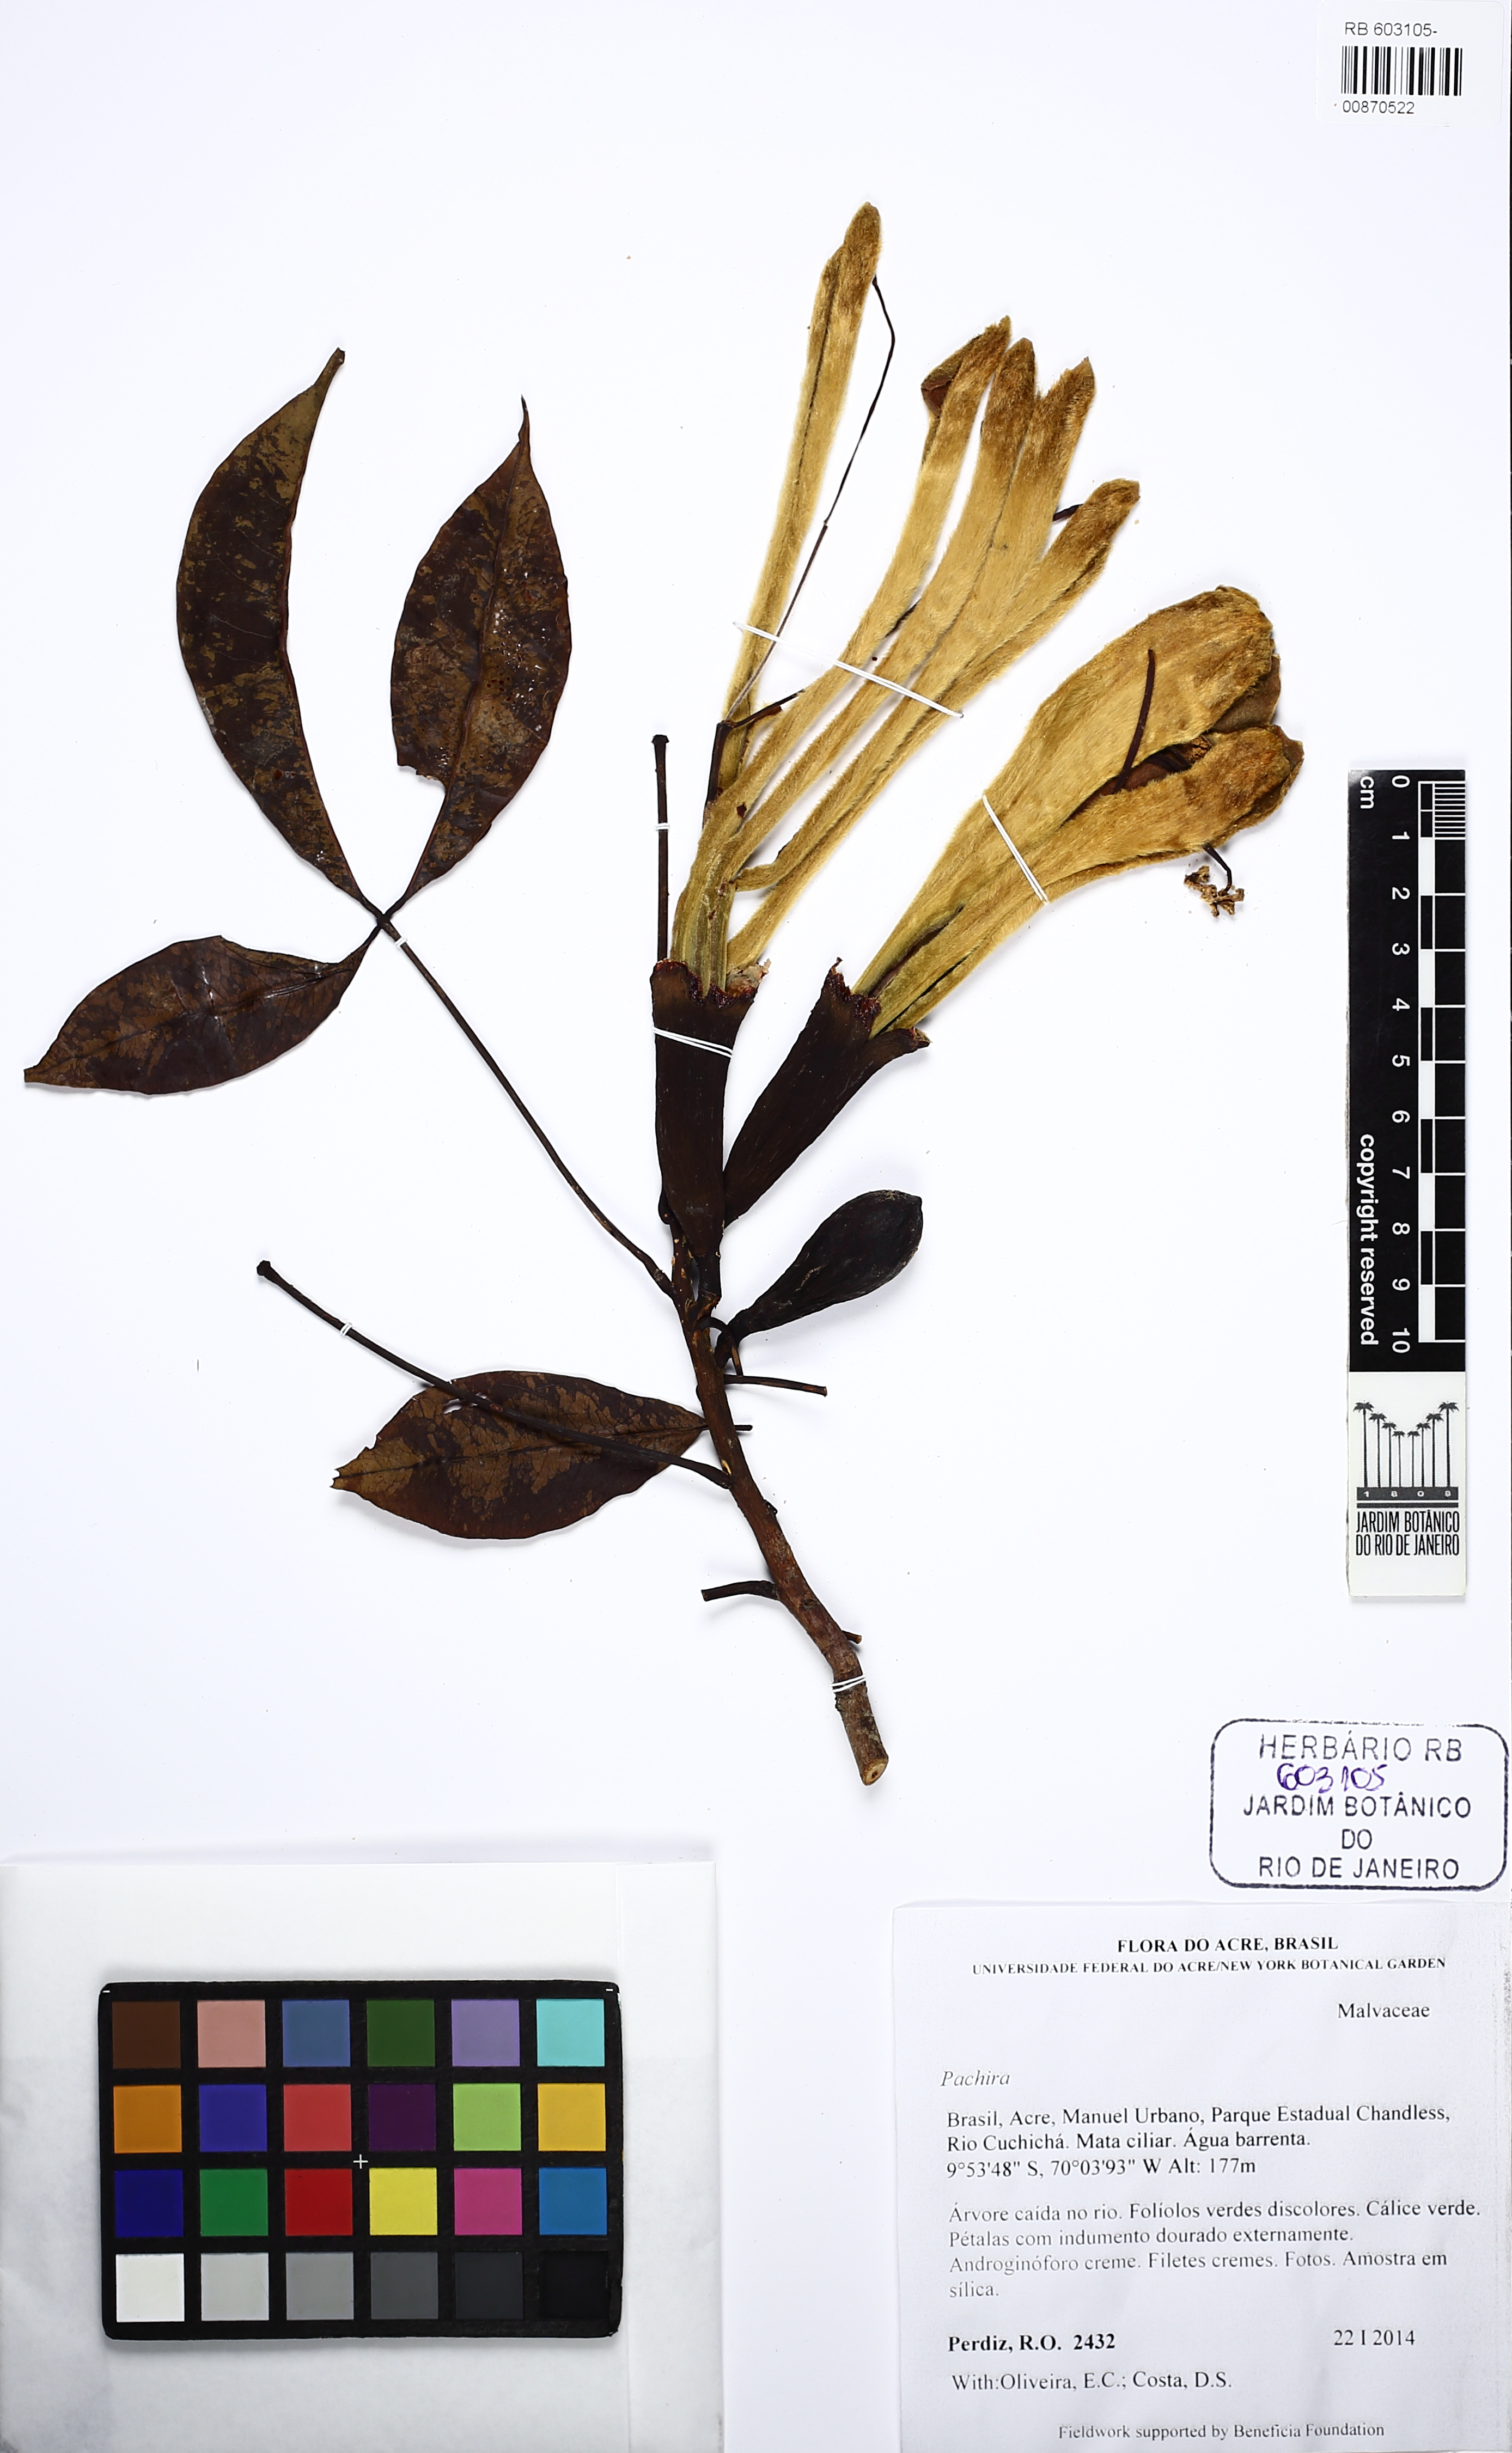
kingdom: Plantae
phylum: Tracheophyta
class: Magnoliopsida
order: Malvales
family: Malvaceae
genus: Ceiba
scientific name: Ceiba samauma
